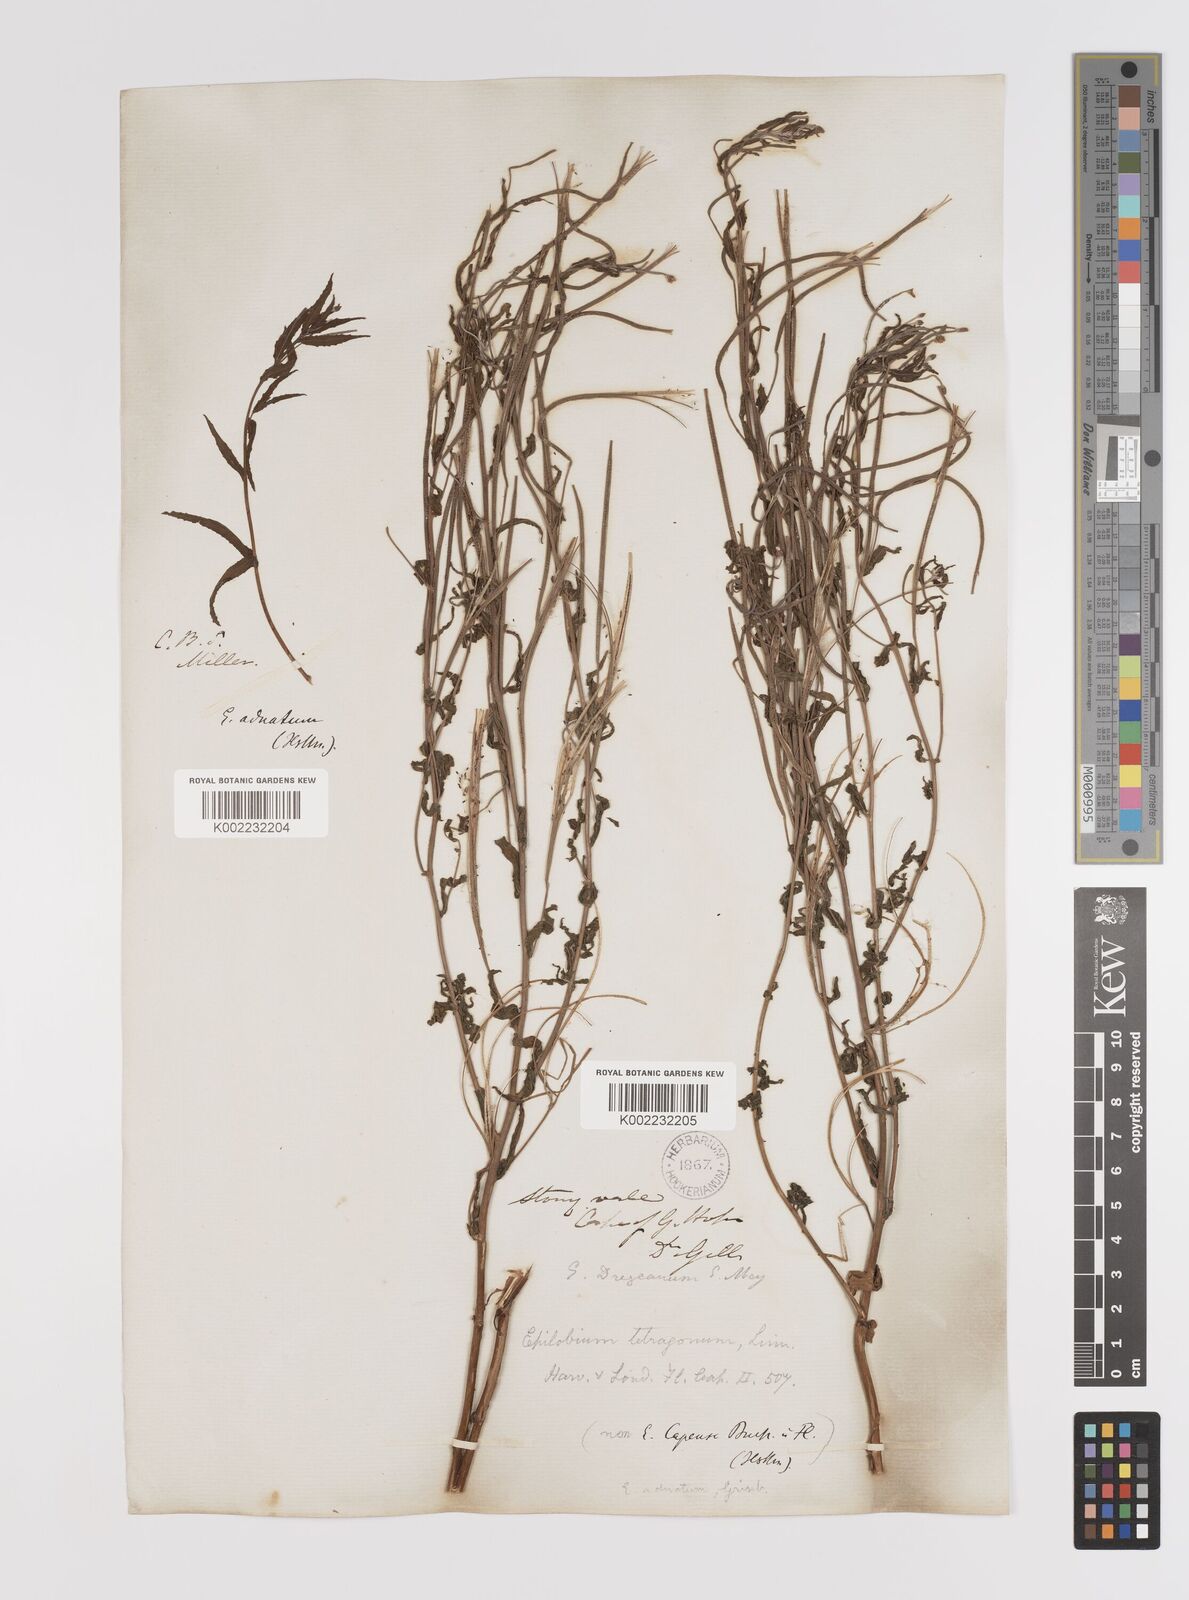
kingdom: Plantae
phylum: Tracheophyta
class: Magnoliopsida
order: Myrtales
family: Onagraceae
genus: Epilobium
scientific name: Epilobium tetragonum
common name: Square-stemmed willowherb
